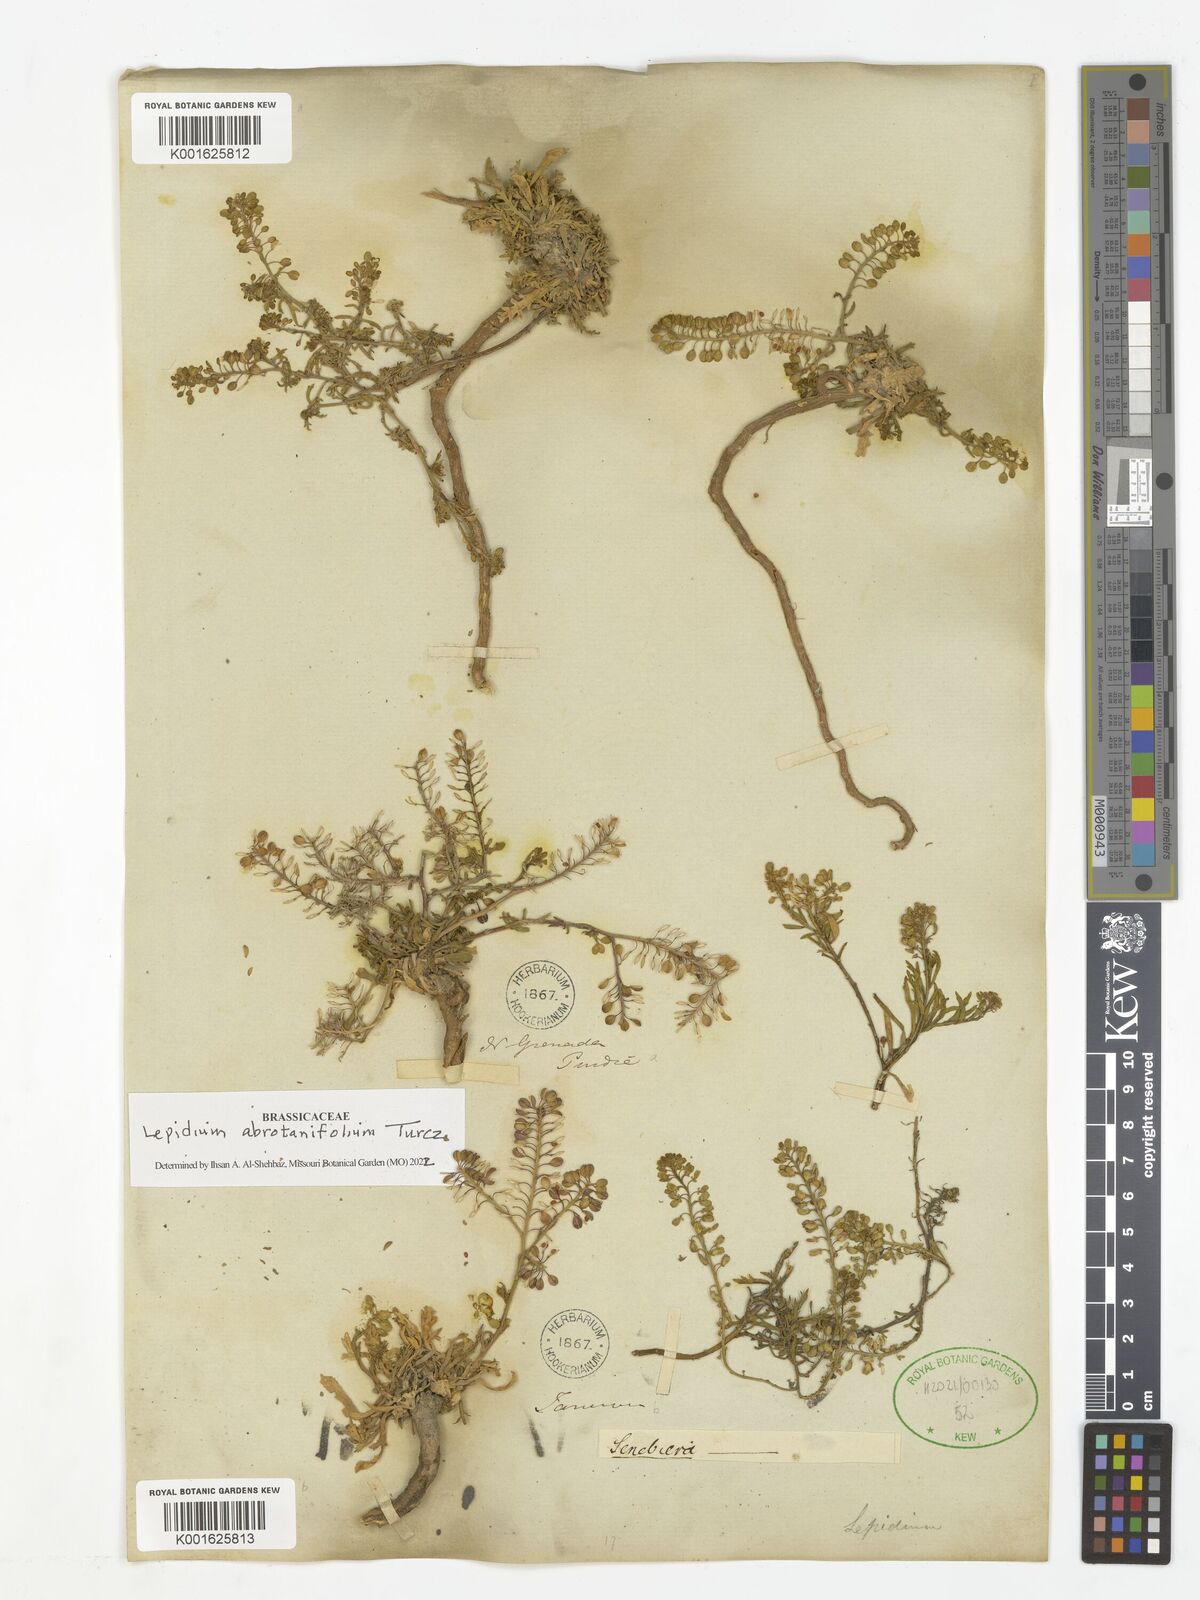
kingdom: Plantae
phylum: Tracheophyta
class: Magnoliopsida
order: Brassicales
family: Brassicaceae
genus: Lepidium
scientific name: Lepidium abrotanifolium
